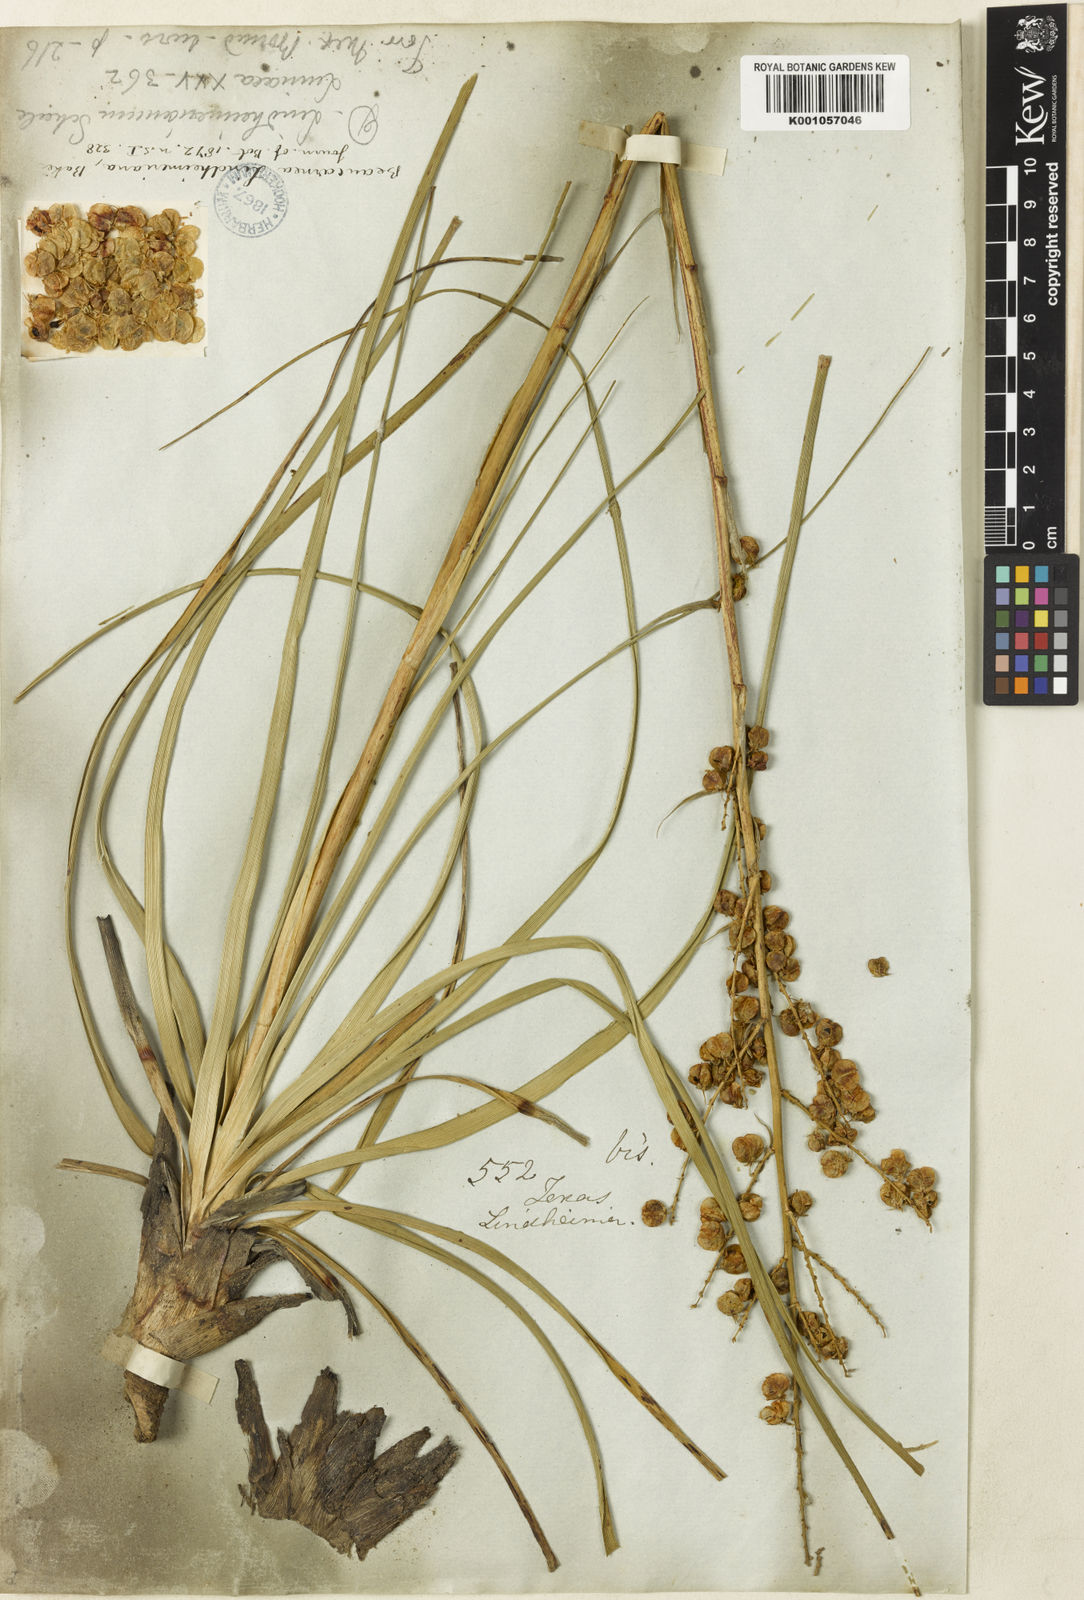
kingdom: Plantae
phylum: Tracheophyta
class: Liliopsida
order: Asparagales
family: Asparagaceae
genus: Nolina
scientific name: Nolina lindheimeriana
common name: Lindheimer's bear-grass
